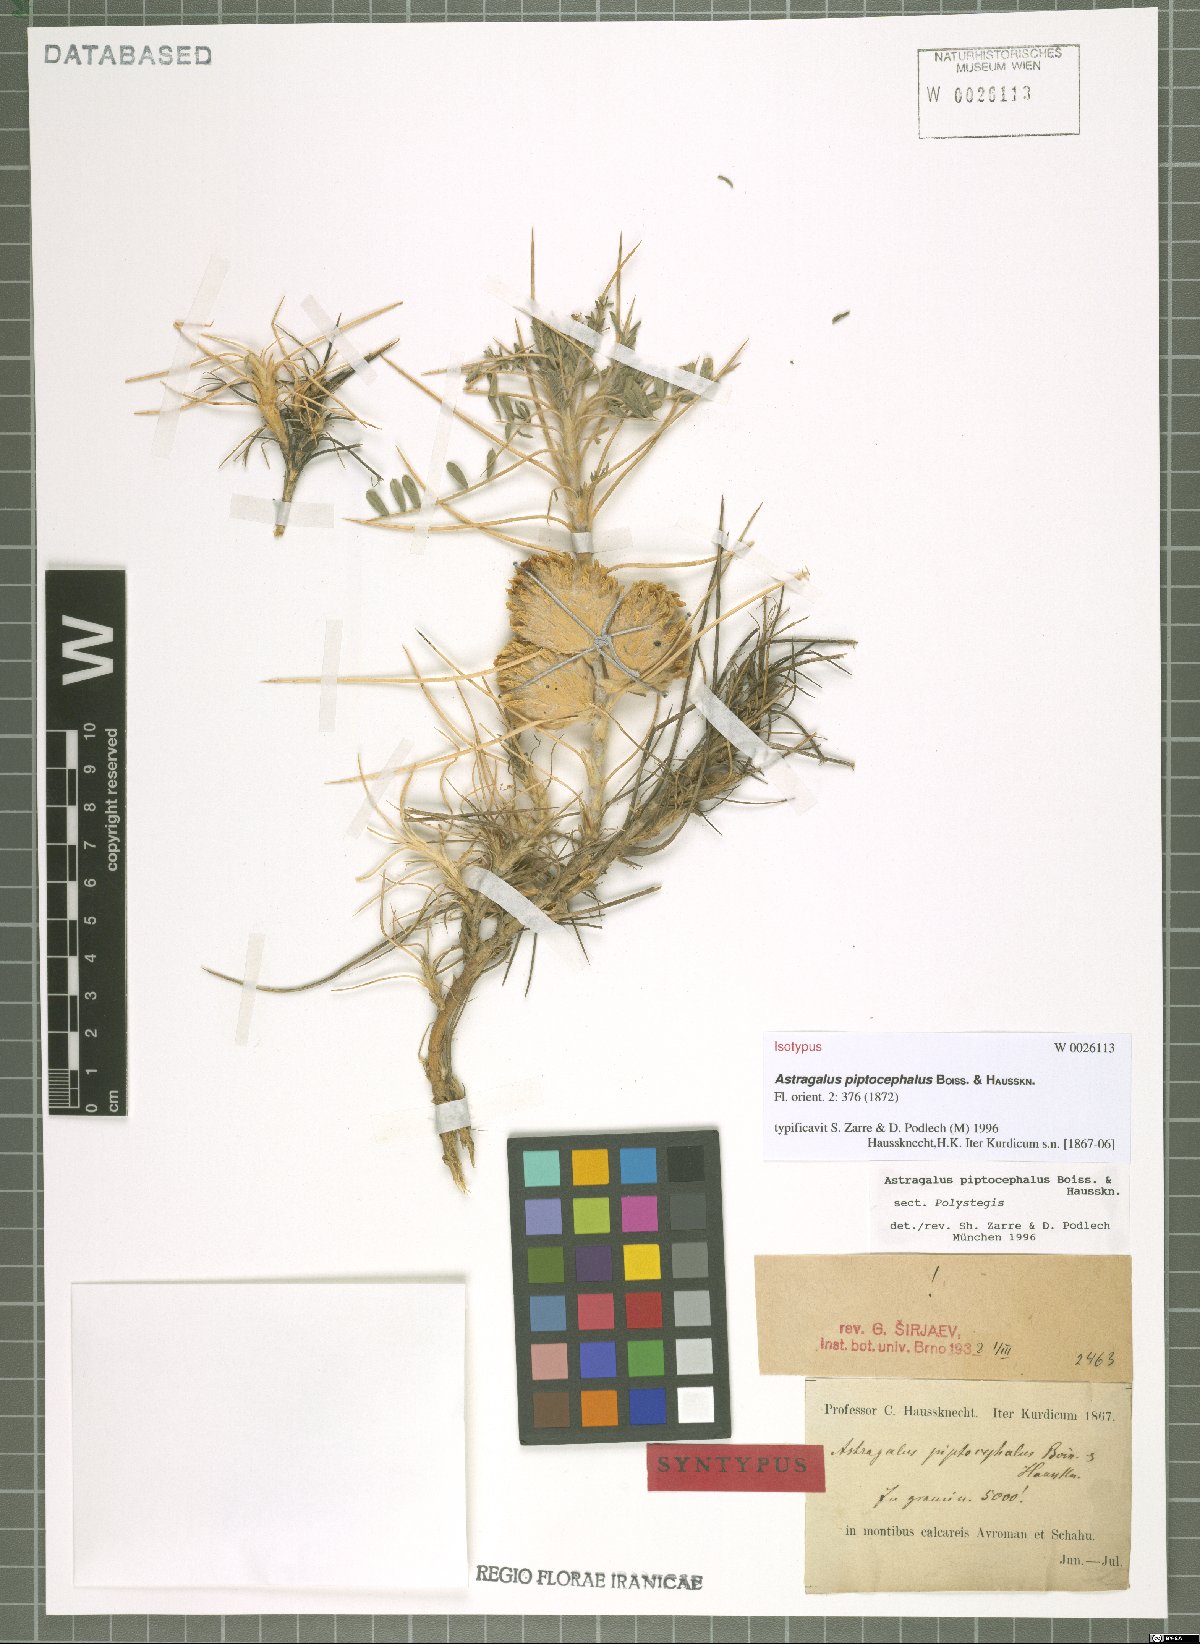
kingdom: Plantae
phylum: Tracheophyta
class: Magnoliopsida
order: Fabales
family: Fabaceae
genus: Astragalus
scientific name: Astragalus piptocephalus
